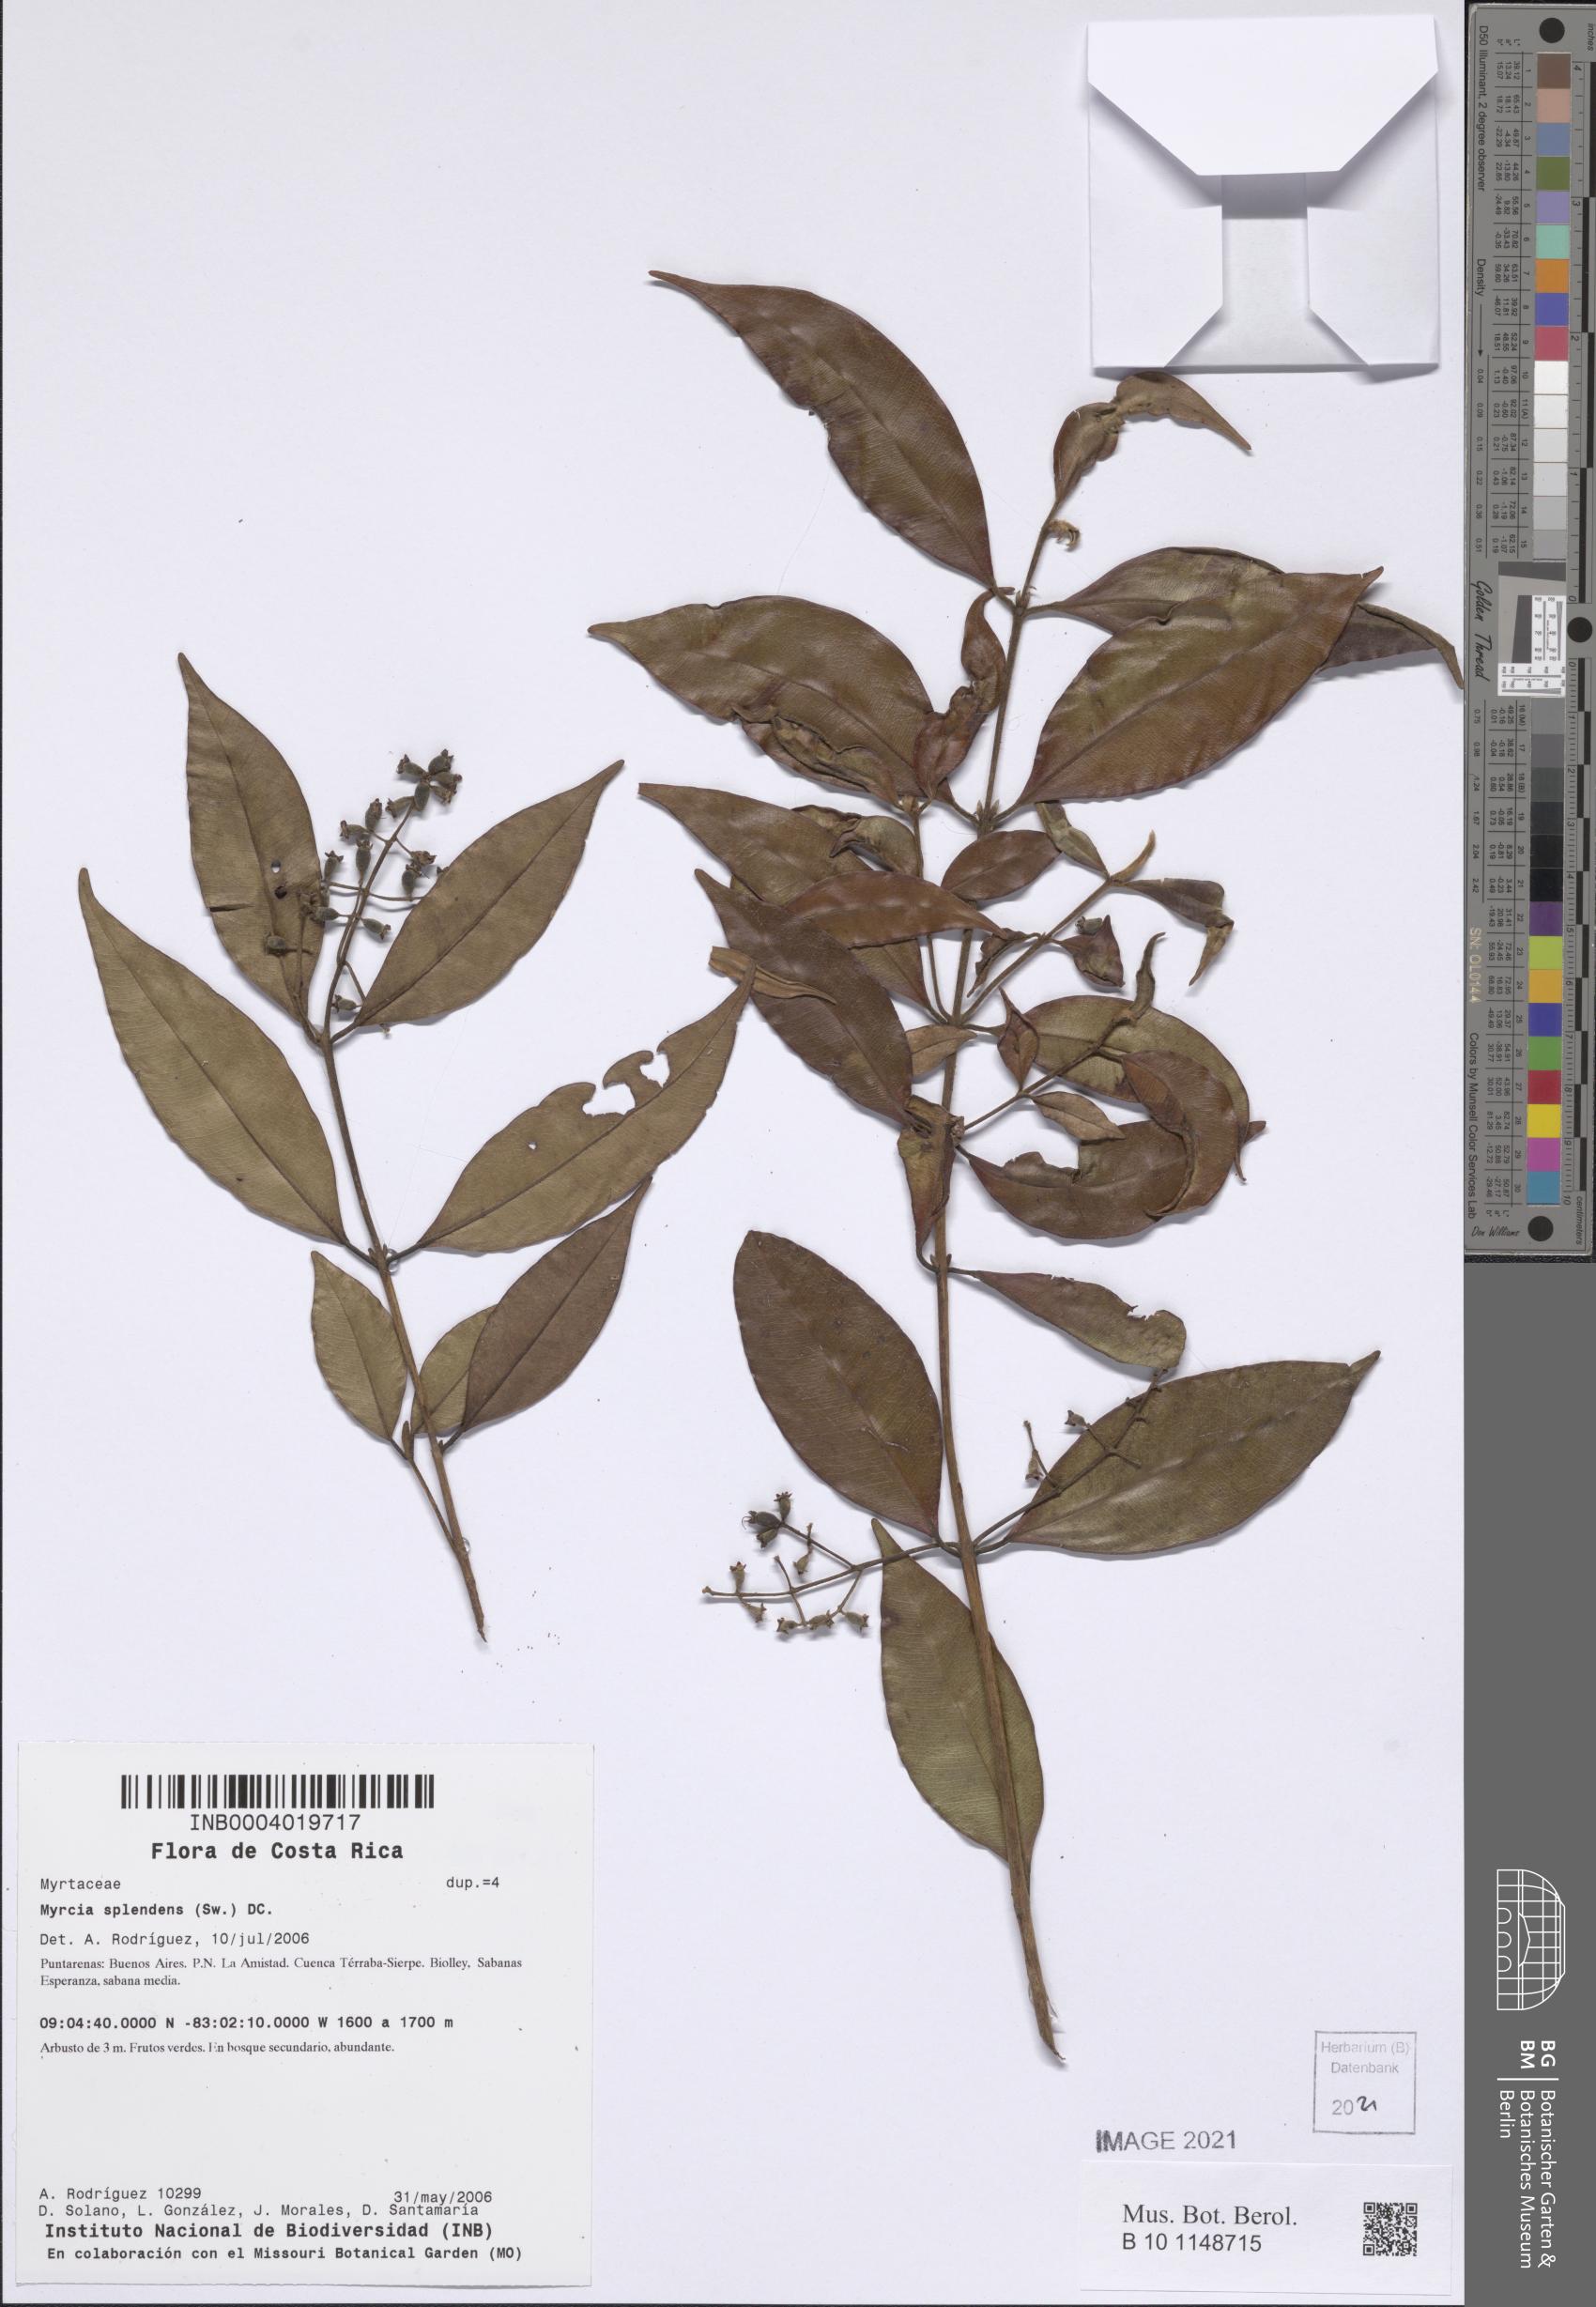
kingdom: Plantae
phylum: Tracheophyta
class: Magnoliopsida
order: Myrtales
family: Myrtaceae
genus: Myrcia
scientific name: Myrcia splendens
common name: Surinam cherry
